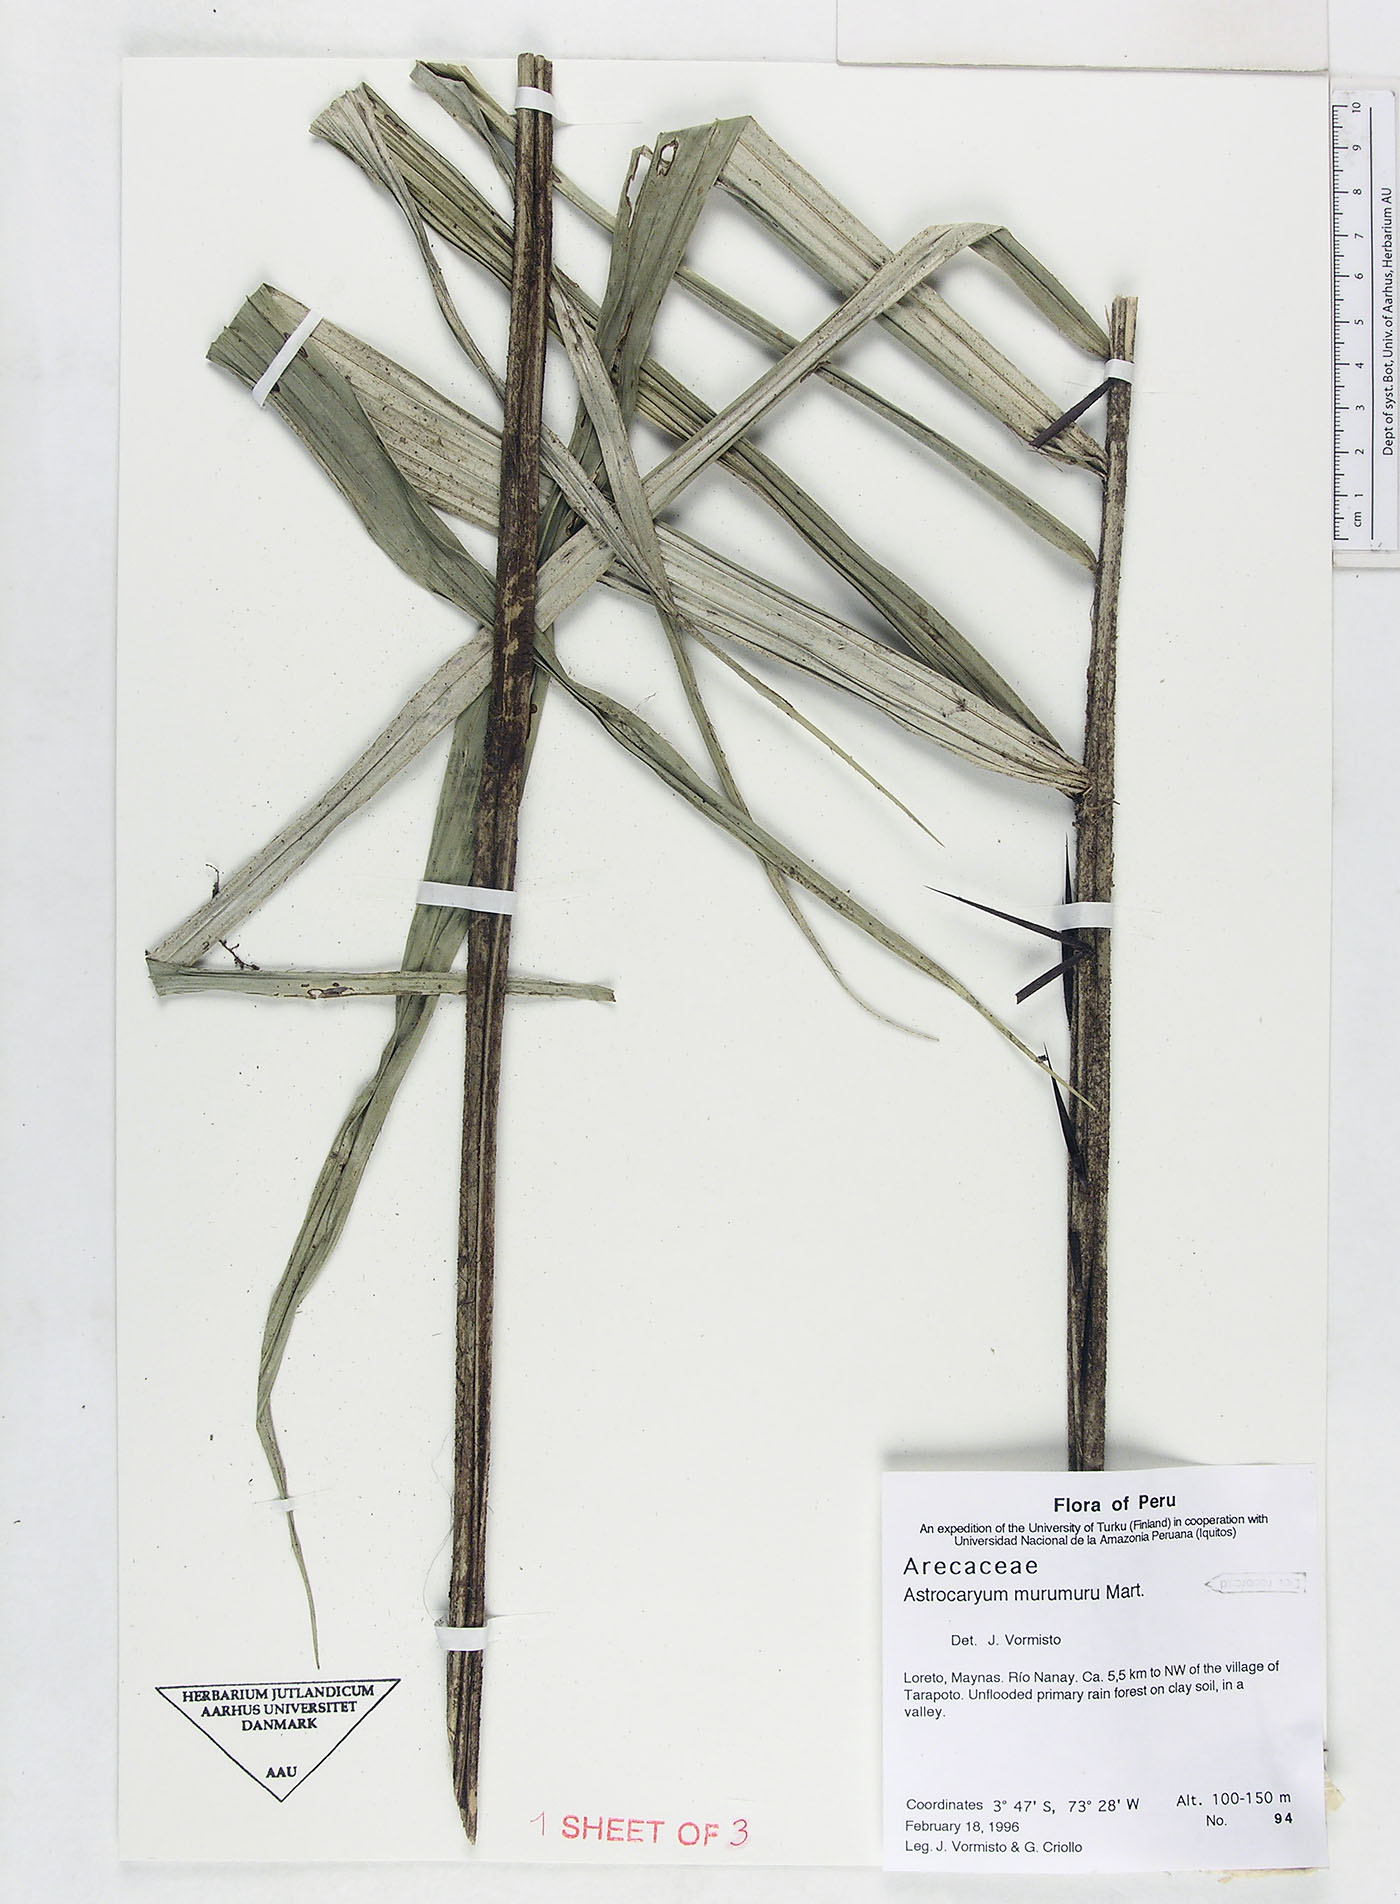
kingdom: Plantae
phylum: Tracheophyta
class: Liliopsida
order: Arecales
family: Arecaceae
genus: Astrocaryum
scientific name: Astrocaryum murumuru
